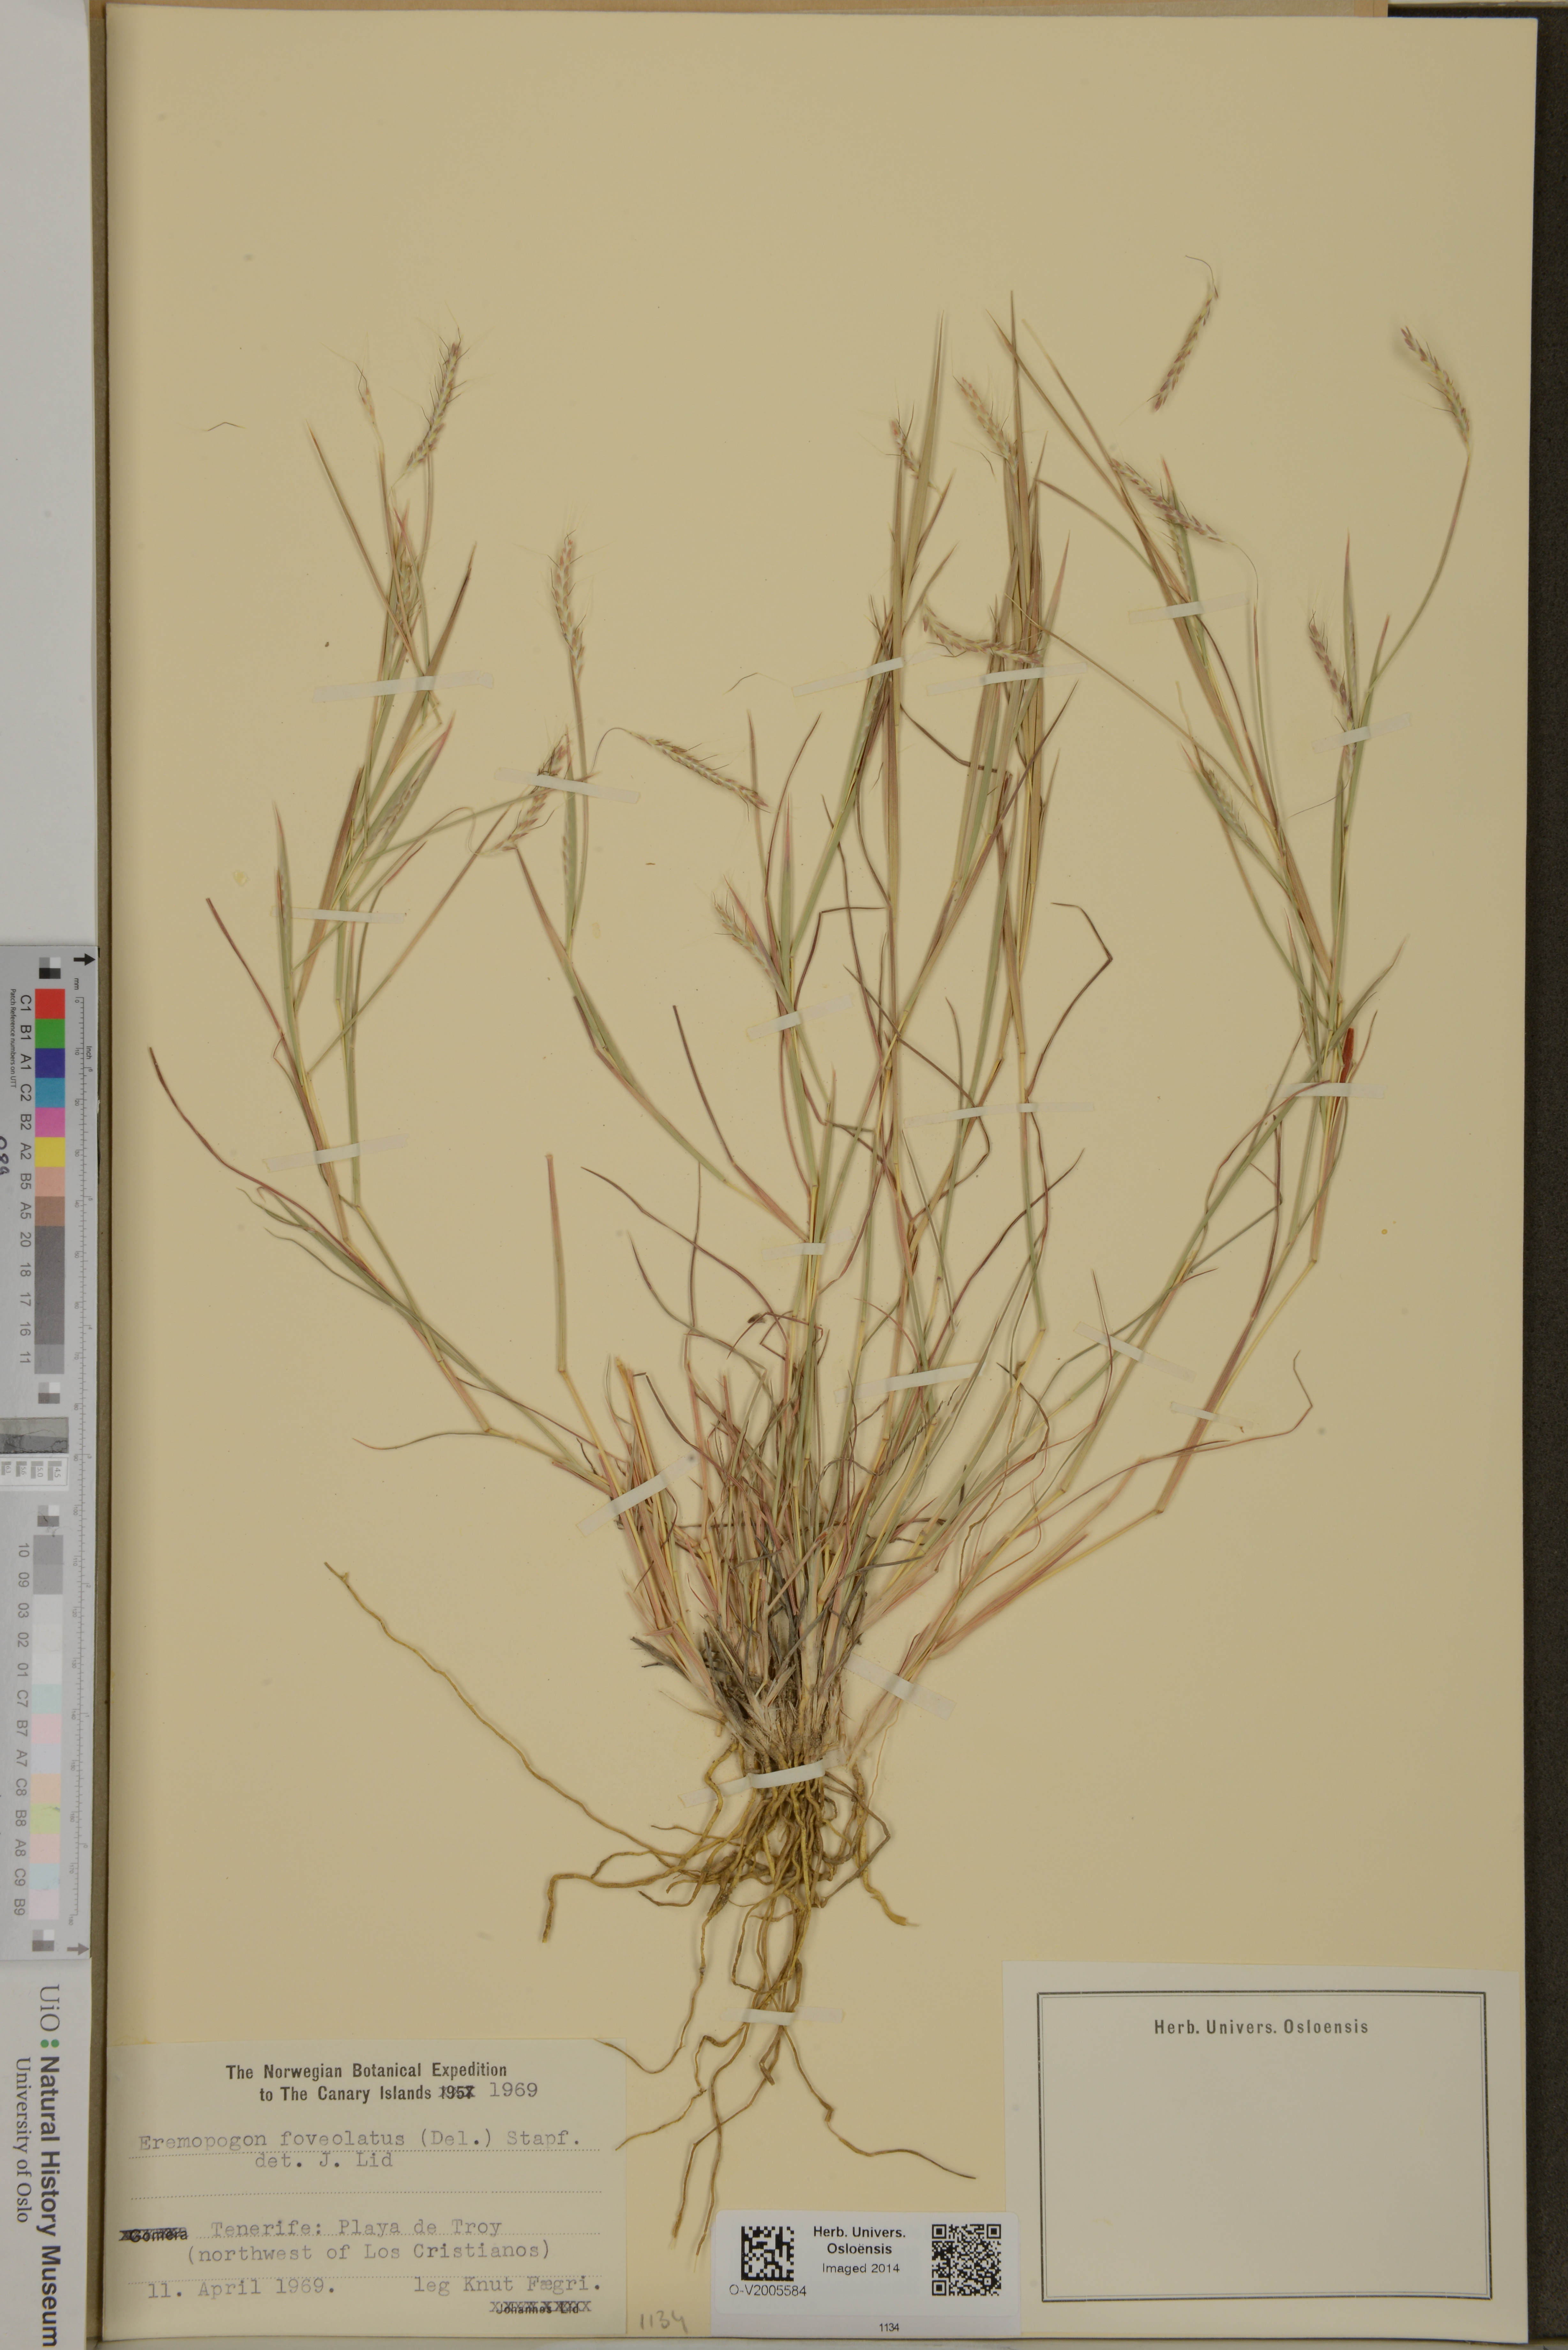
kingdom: Plantae
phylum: Tracheophyta
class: Liliopsida
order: Poales
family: Poaceae
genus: Dichanthium
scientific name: Dichanthium foveolatum
